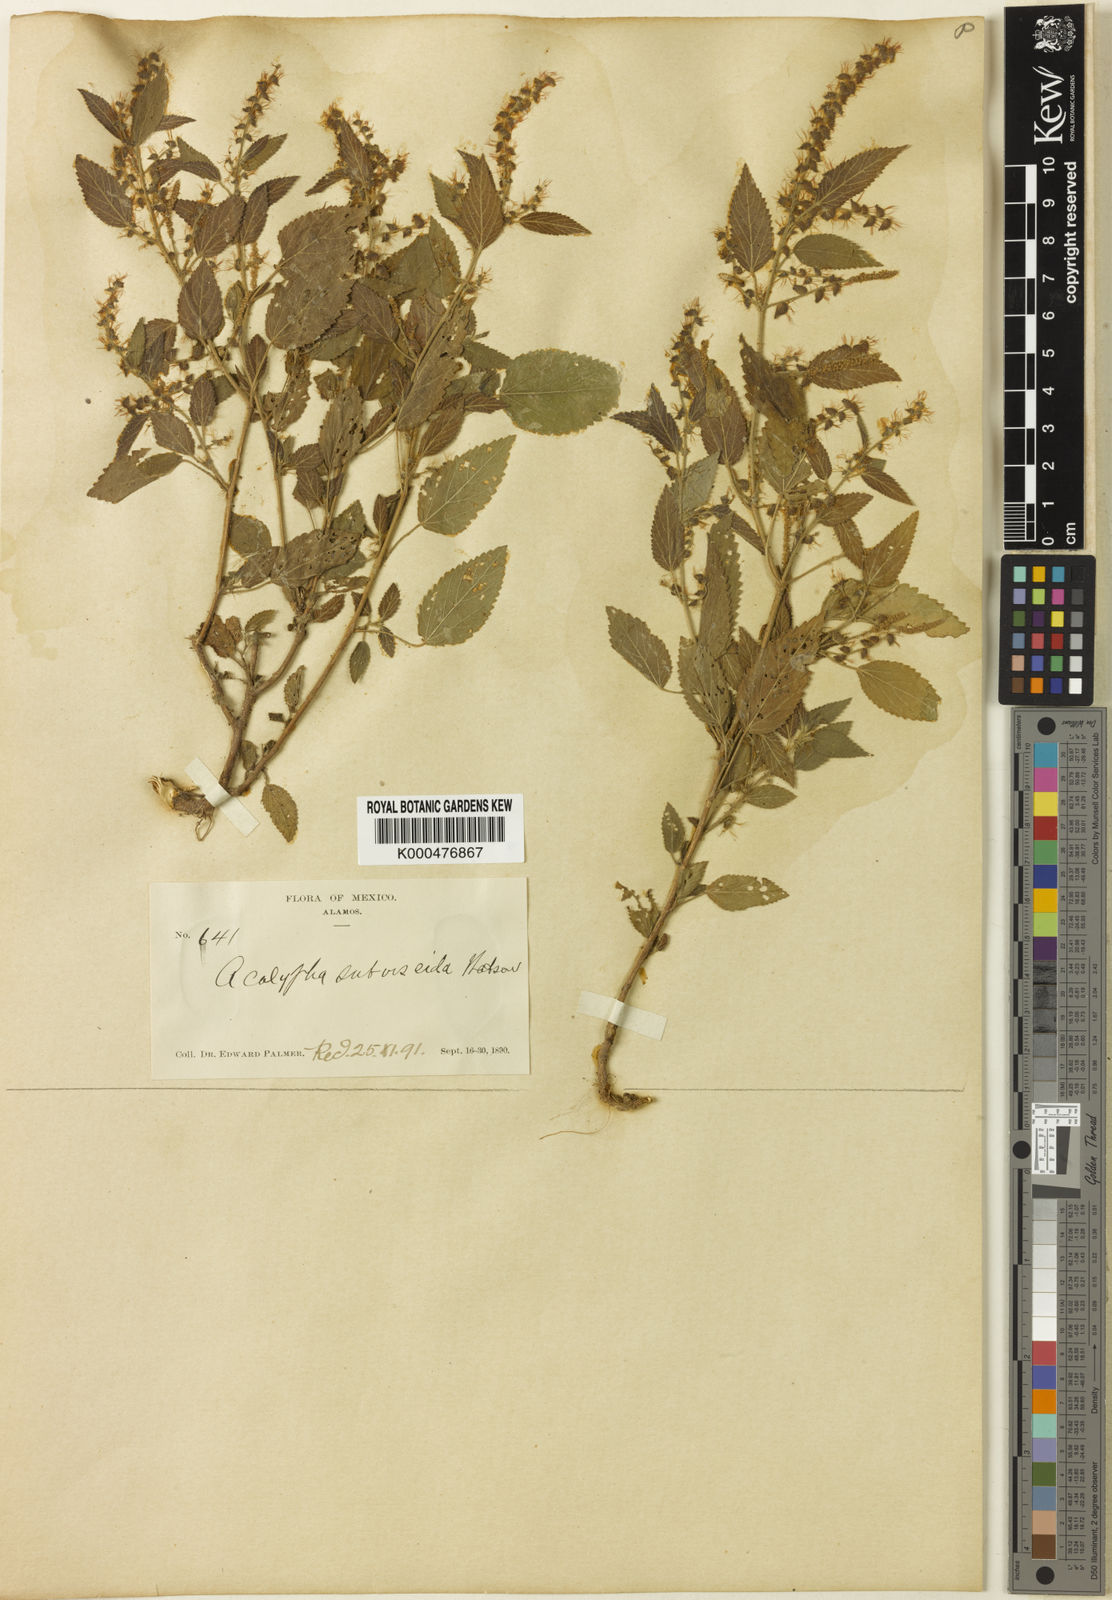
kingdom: Plantae
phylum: Tracheophyta
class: Magnoliopsida
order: Malpighiales
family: Euphorbiaceae
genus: Acalypha
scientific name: Acalypha subviscida
